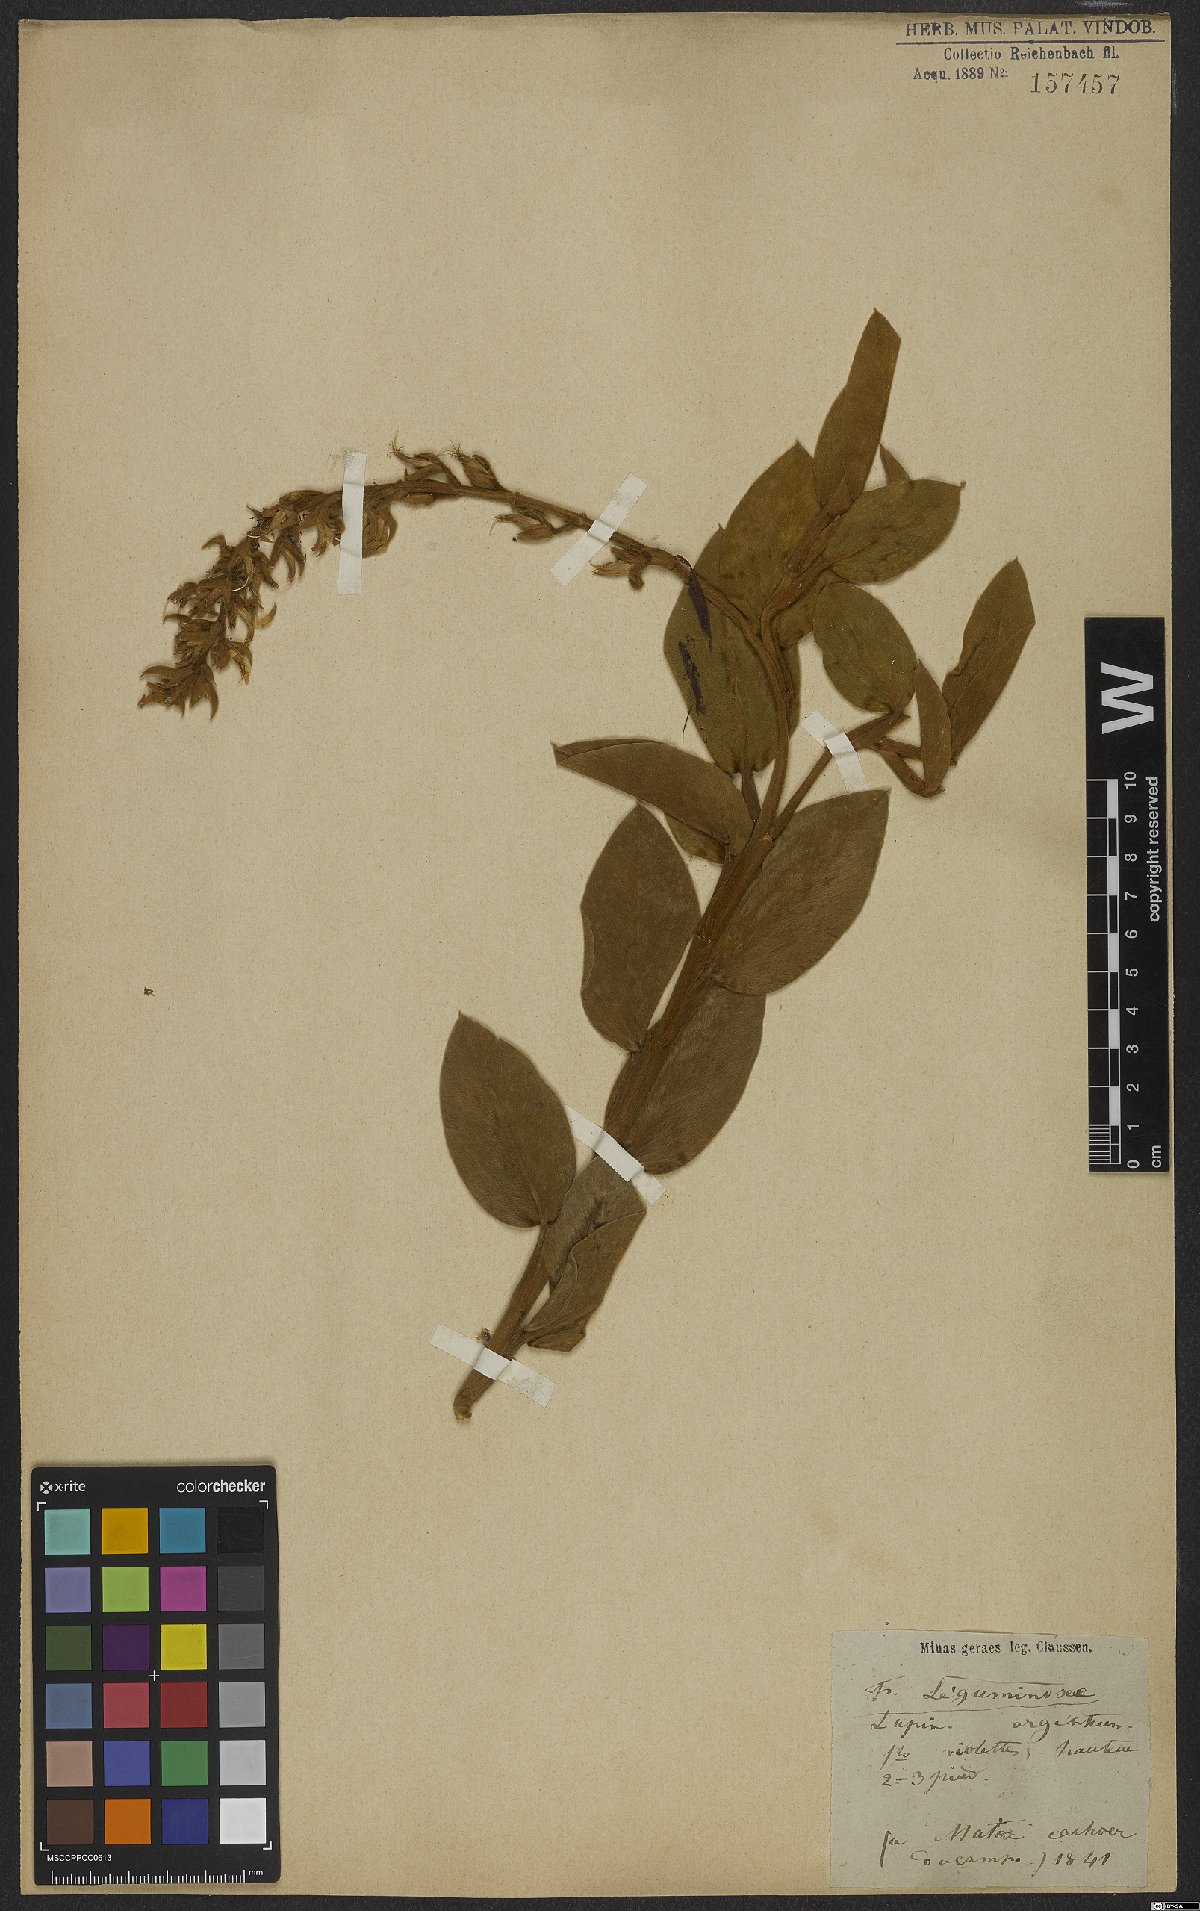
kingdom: Plantae
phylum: Tracheophyta
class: Magnoliopsida
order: Fabales
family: Fabaceae
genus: Lupinus
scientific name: Lupinus velutinus
